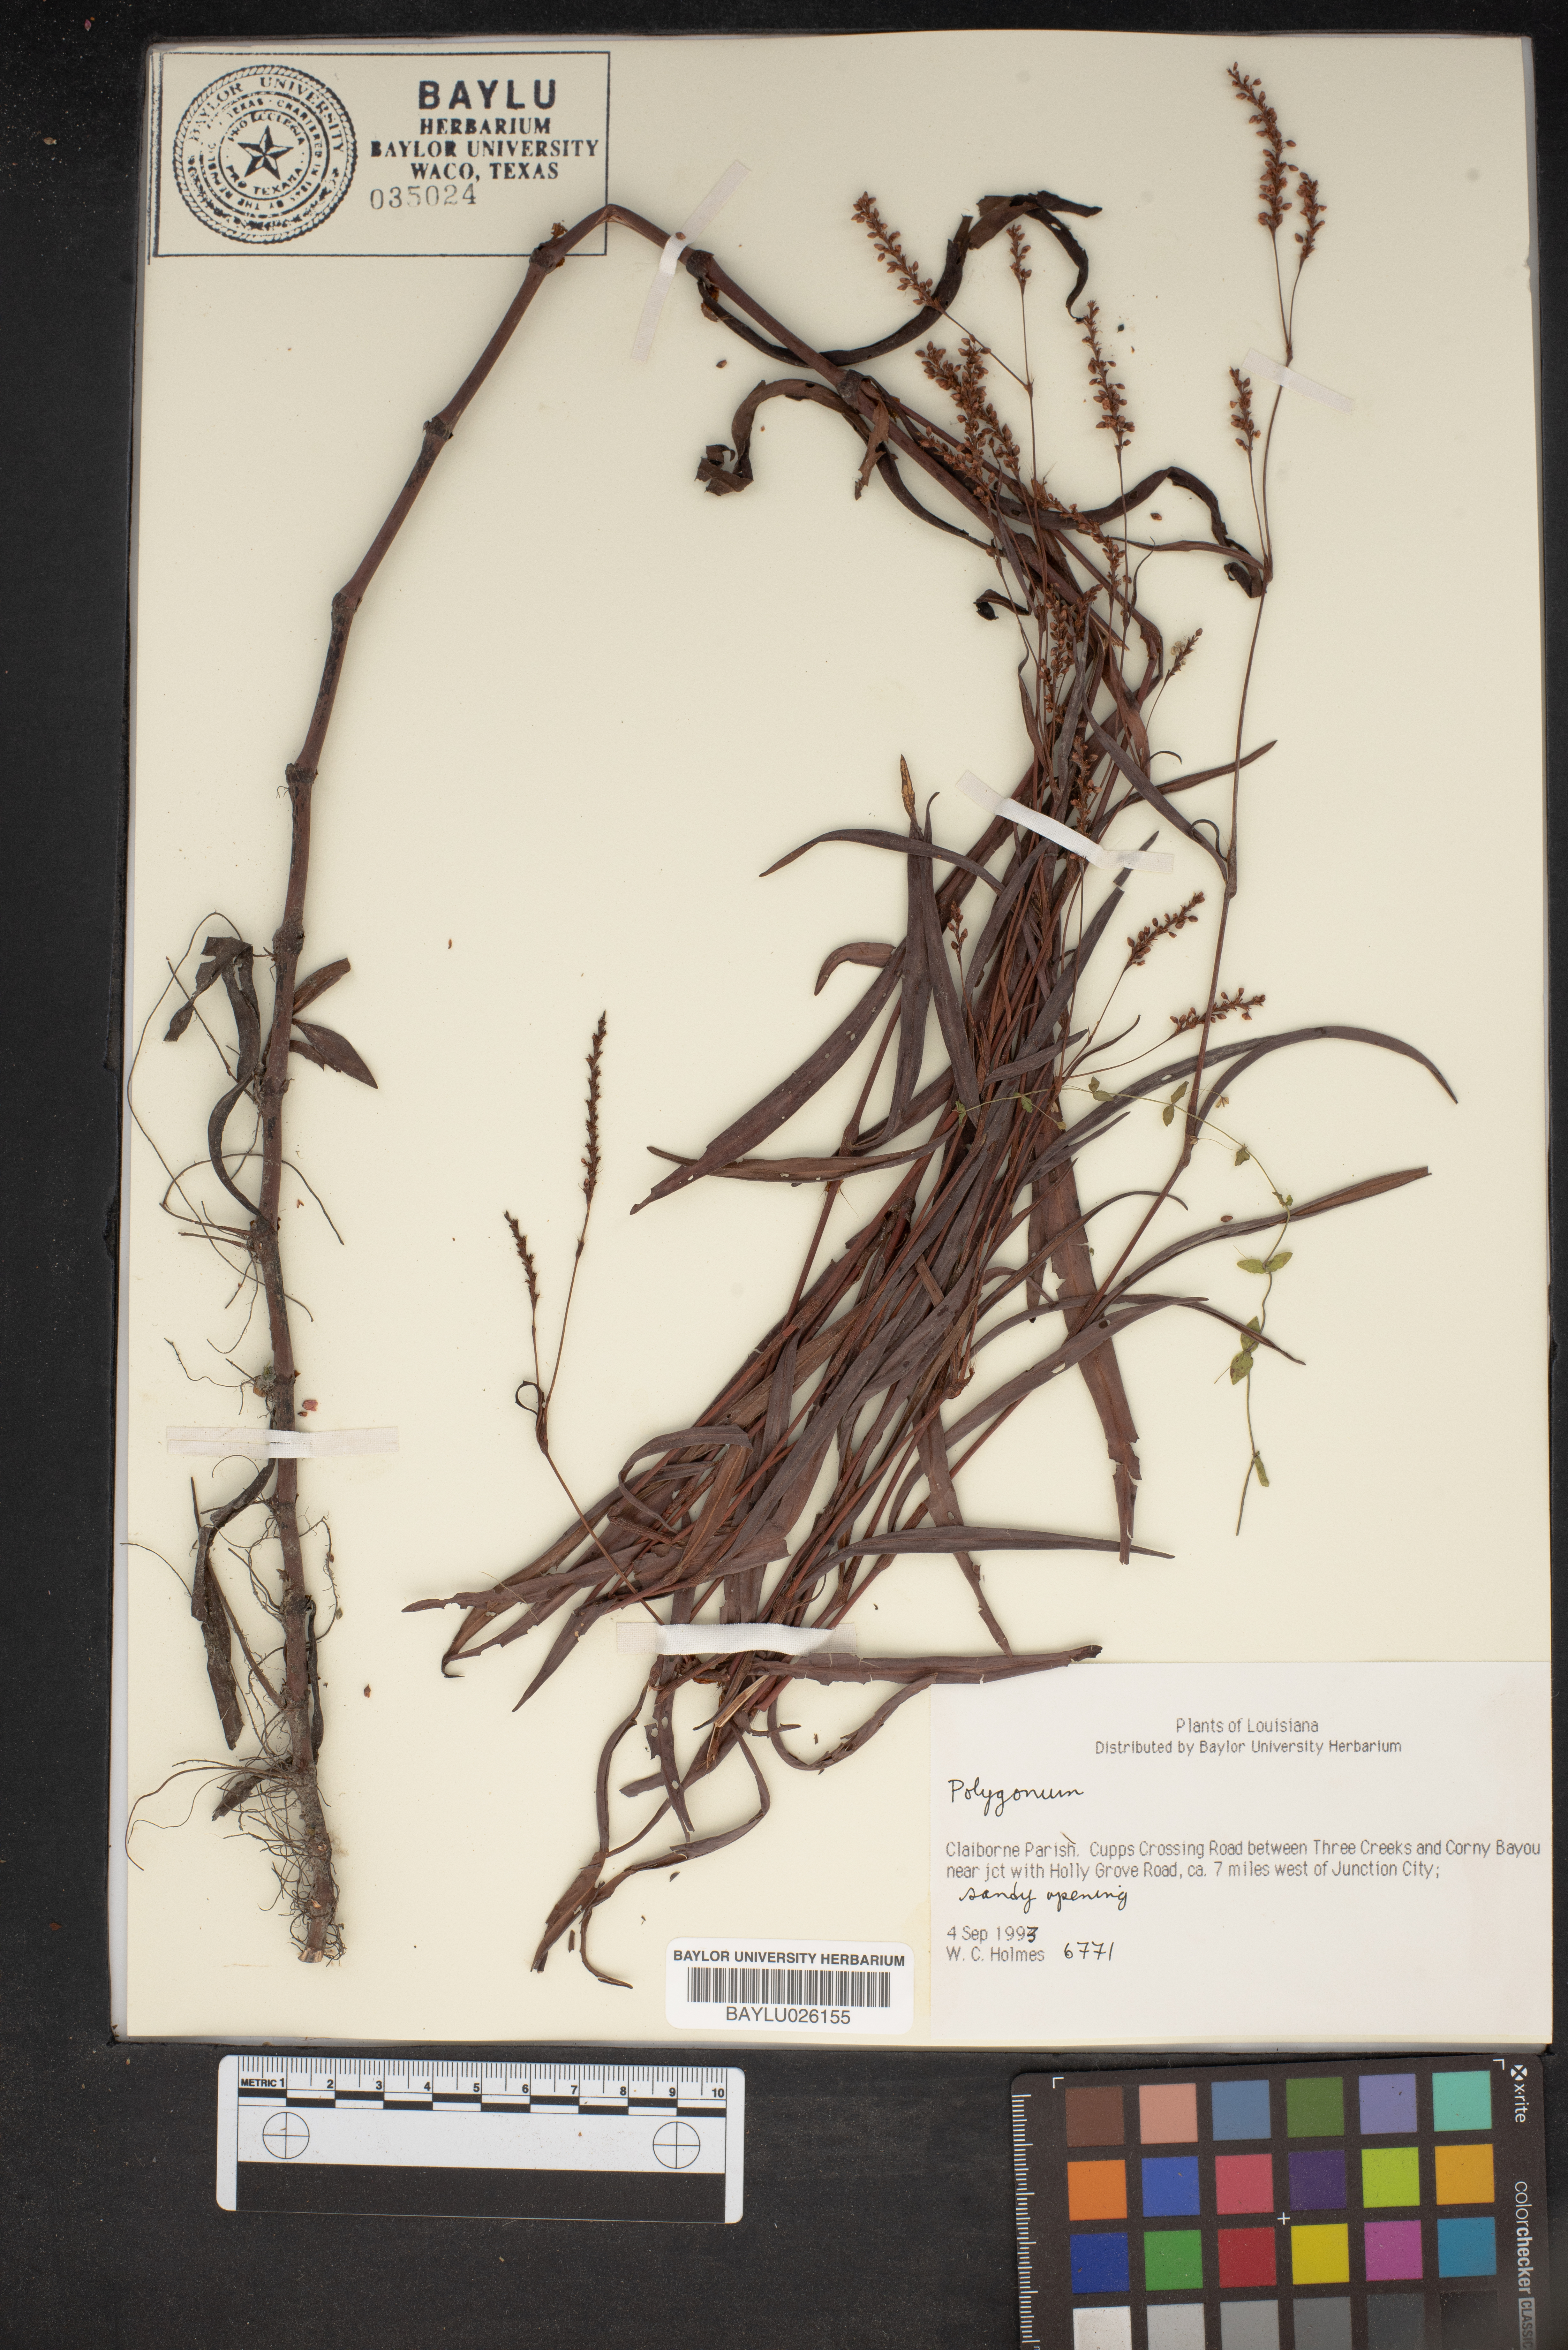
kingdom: Plantae
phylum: Tracheophyta
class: Magnoliopsida
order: Caryophyllales
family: Polygonaceae
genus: Polygonum
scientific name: Polygonum
